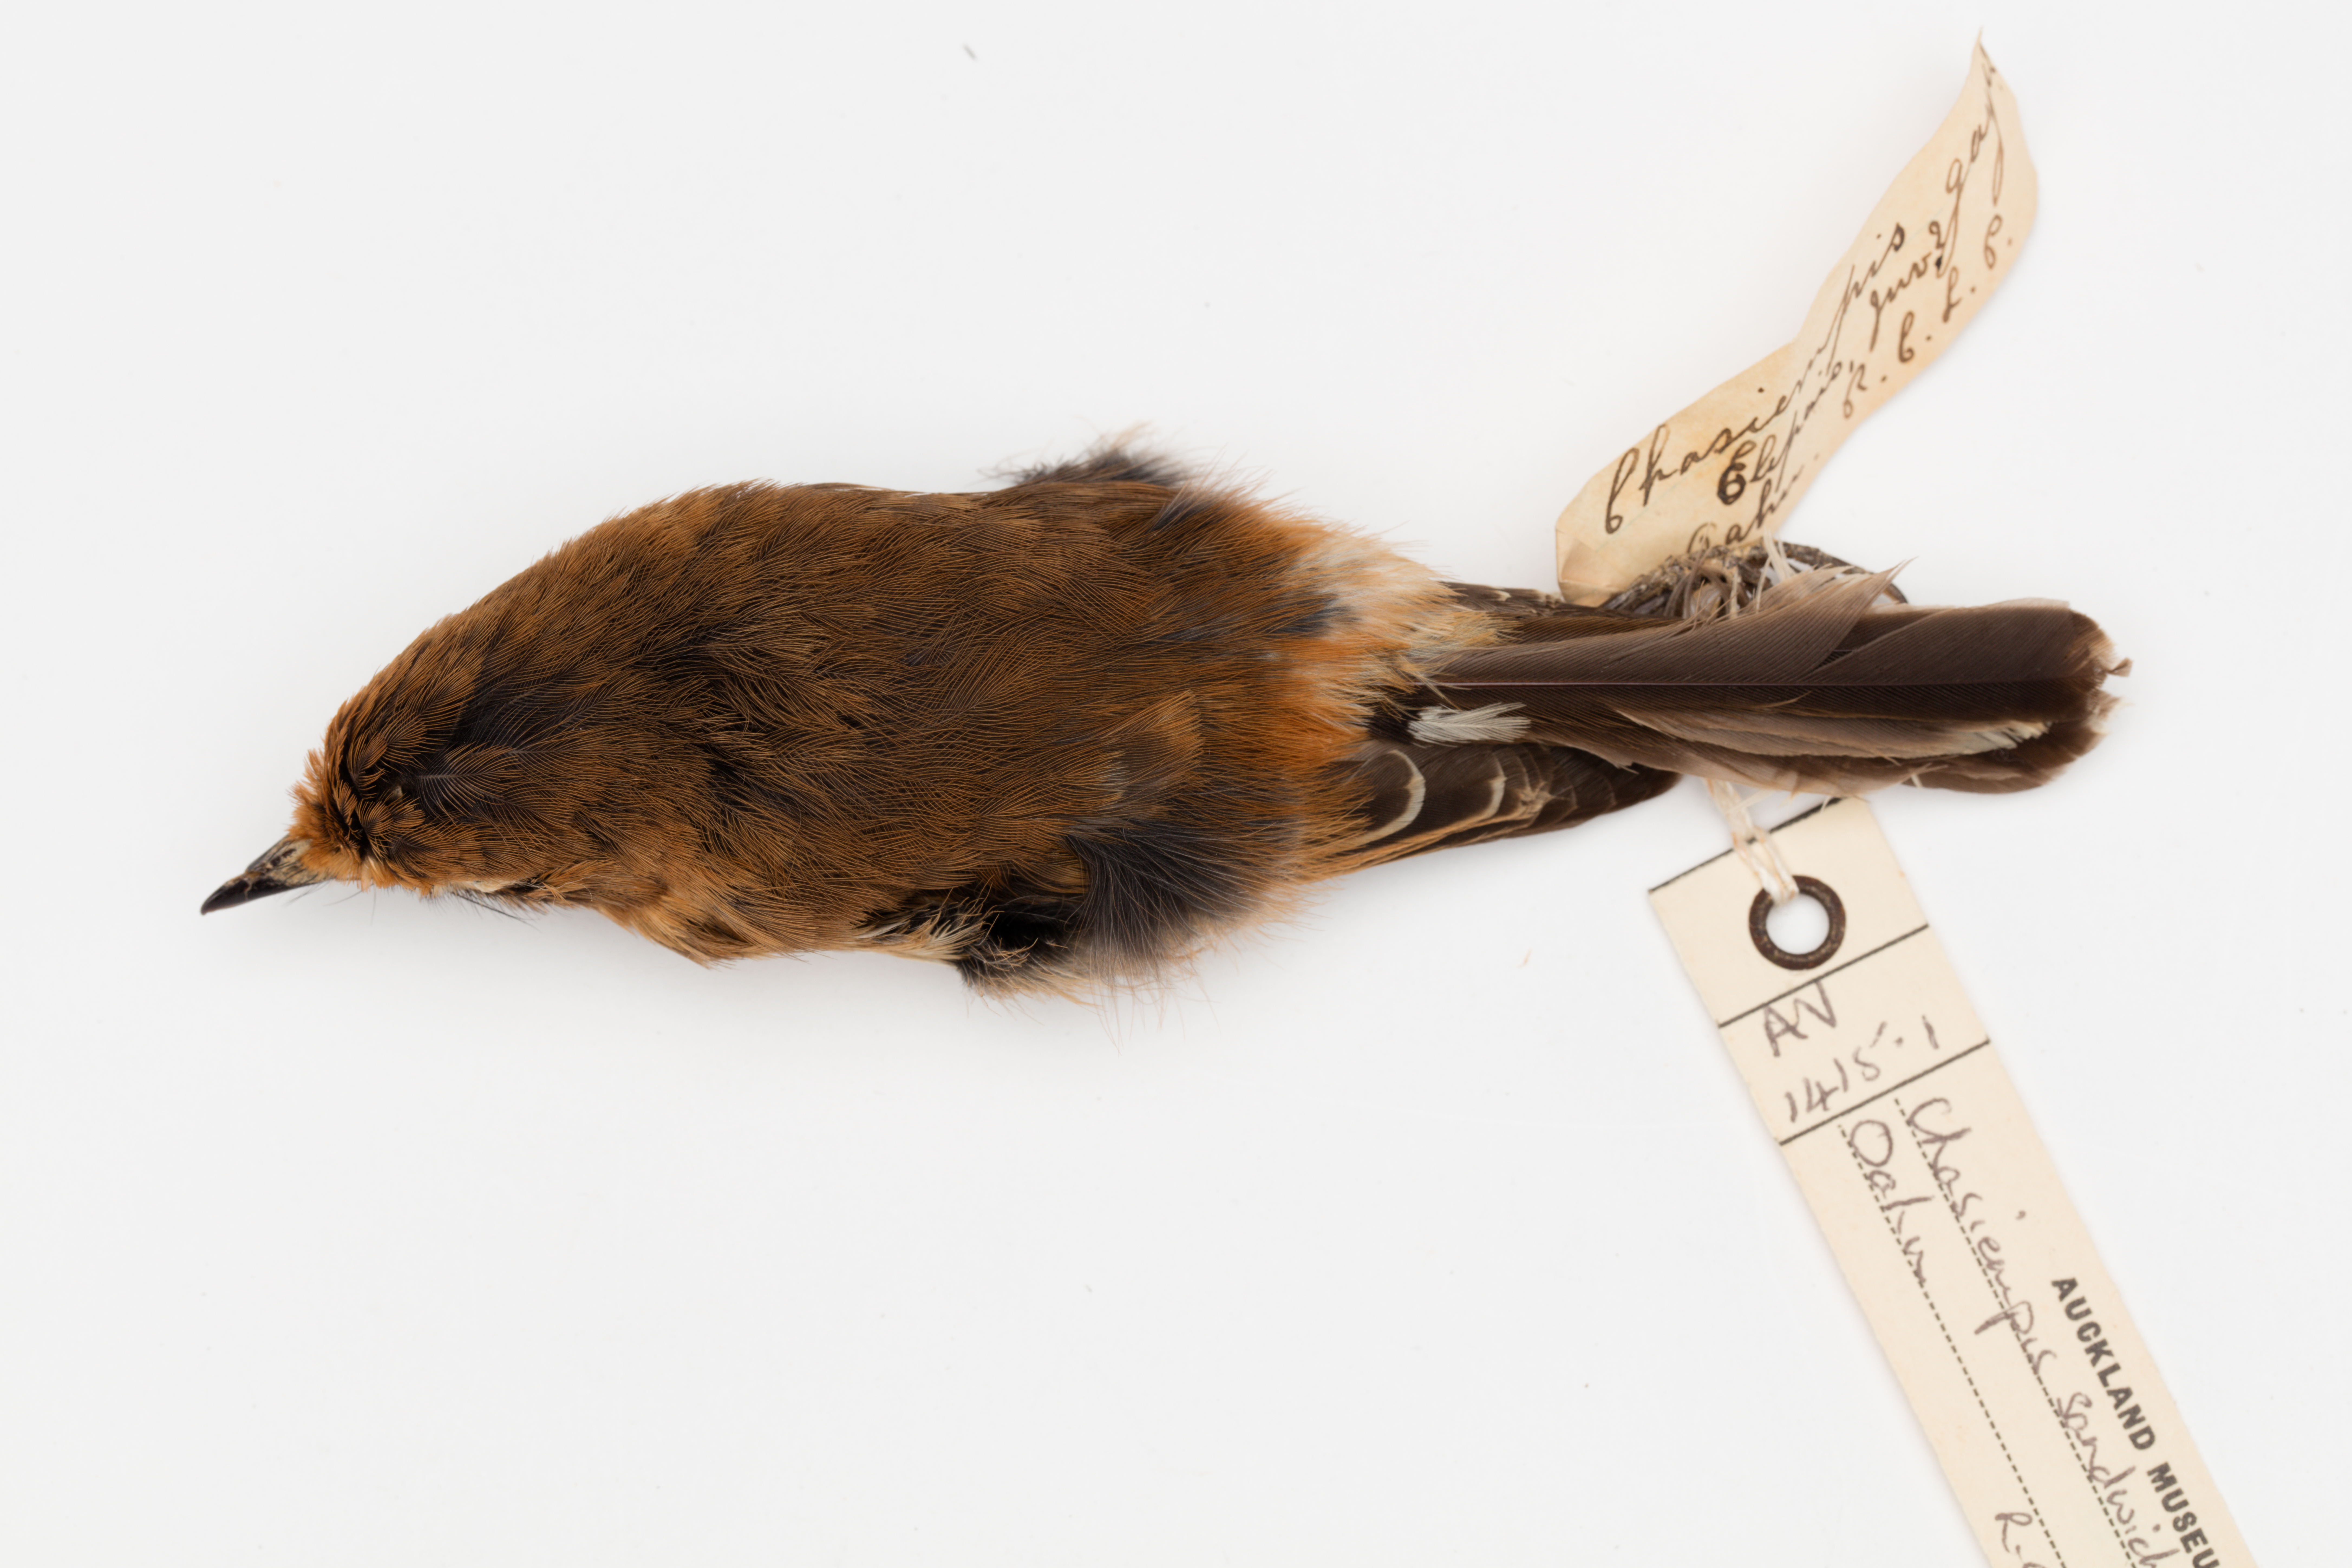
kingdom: Animalia
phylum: Chordata
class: Aves
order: Passeriformes
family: Monarchidae
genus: Chasiempis
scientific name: Chasiempis sandwichensis
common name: Hawaii elepaio
